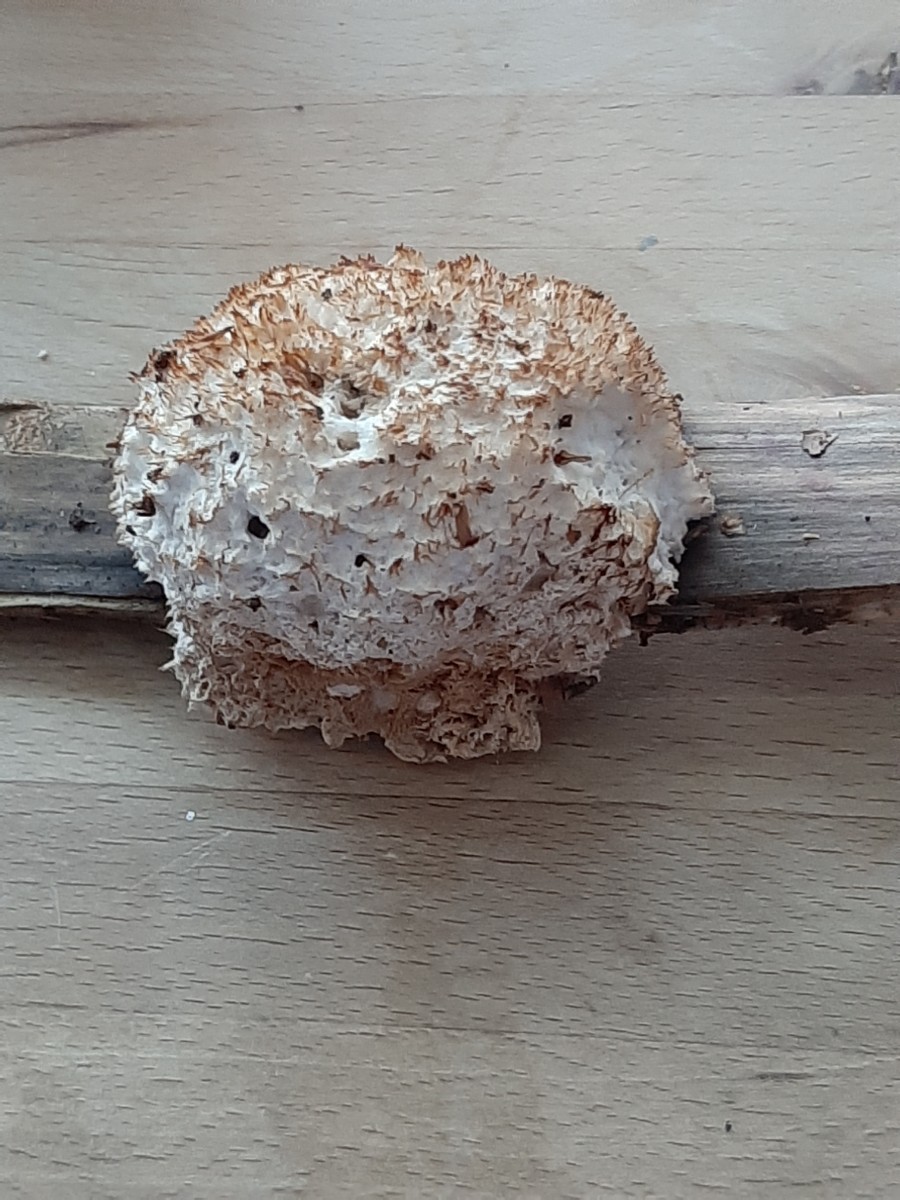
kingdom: Fungi
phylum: Basidiomycota
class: Agaricomycetes
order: Polyporales
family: Dacryobolaceae
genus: Postia
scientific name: Postia ptychogaster
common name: støvende kødporesvamp
